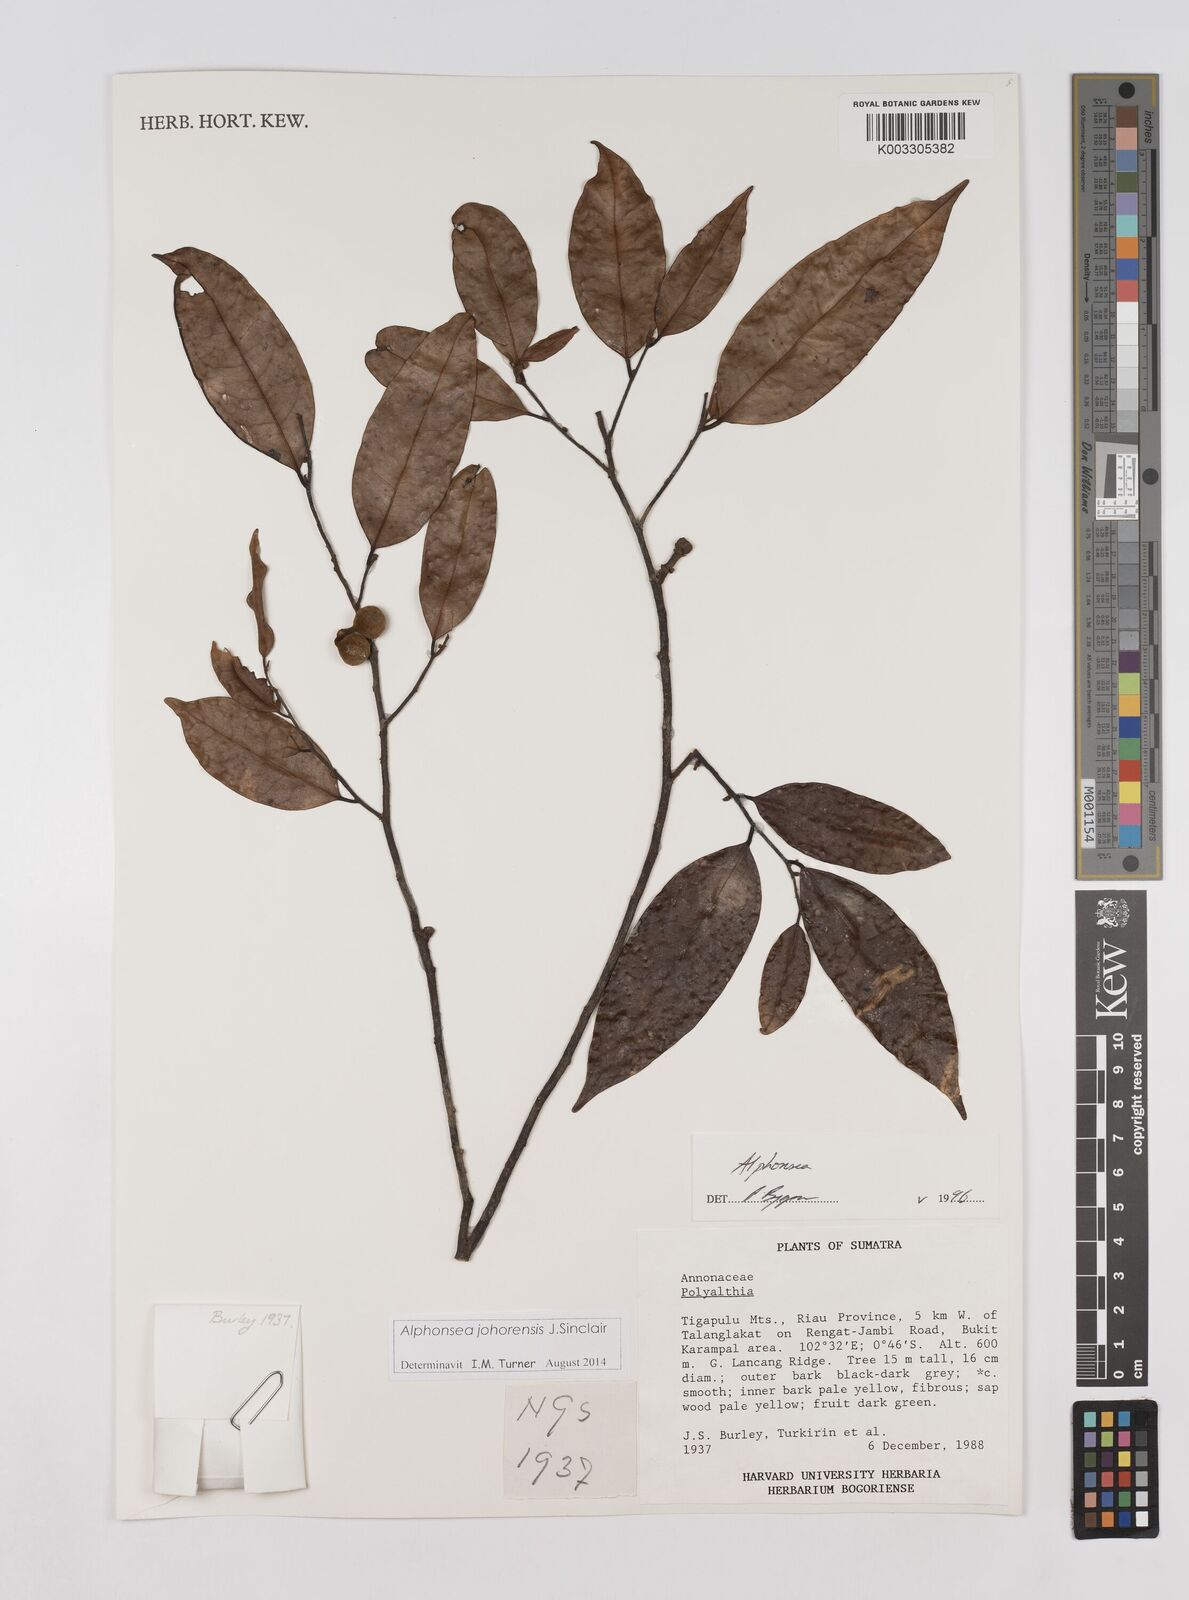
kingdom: Plantae
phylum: Tracheophyta
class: Magnoliopsida
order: Magnoliales
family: Annonaceae
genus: Alphonsea
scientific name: Alphonsea johorensis
